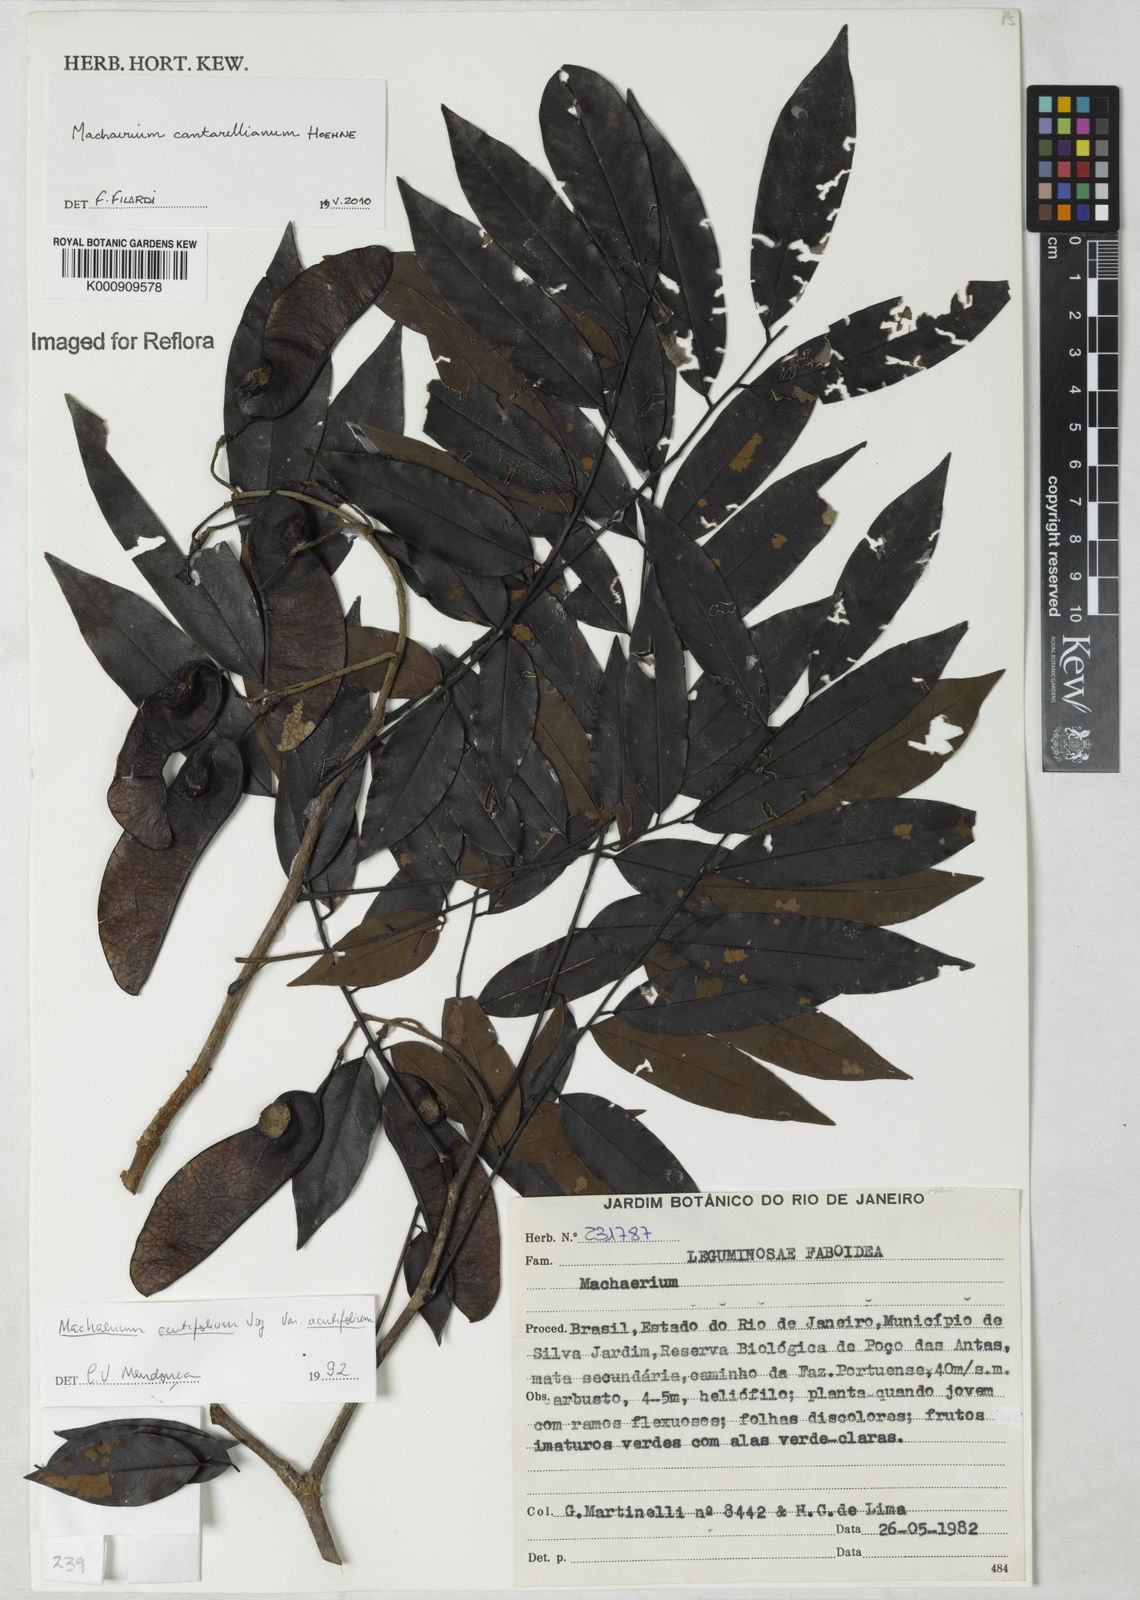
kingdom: Plantae
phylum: Tracheophyta
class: Magnoliopsida
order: Fabales
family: Fabaceae
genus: Machaerium
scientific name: Machaerium cantarellianum
